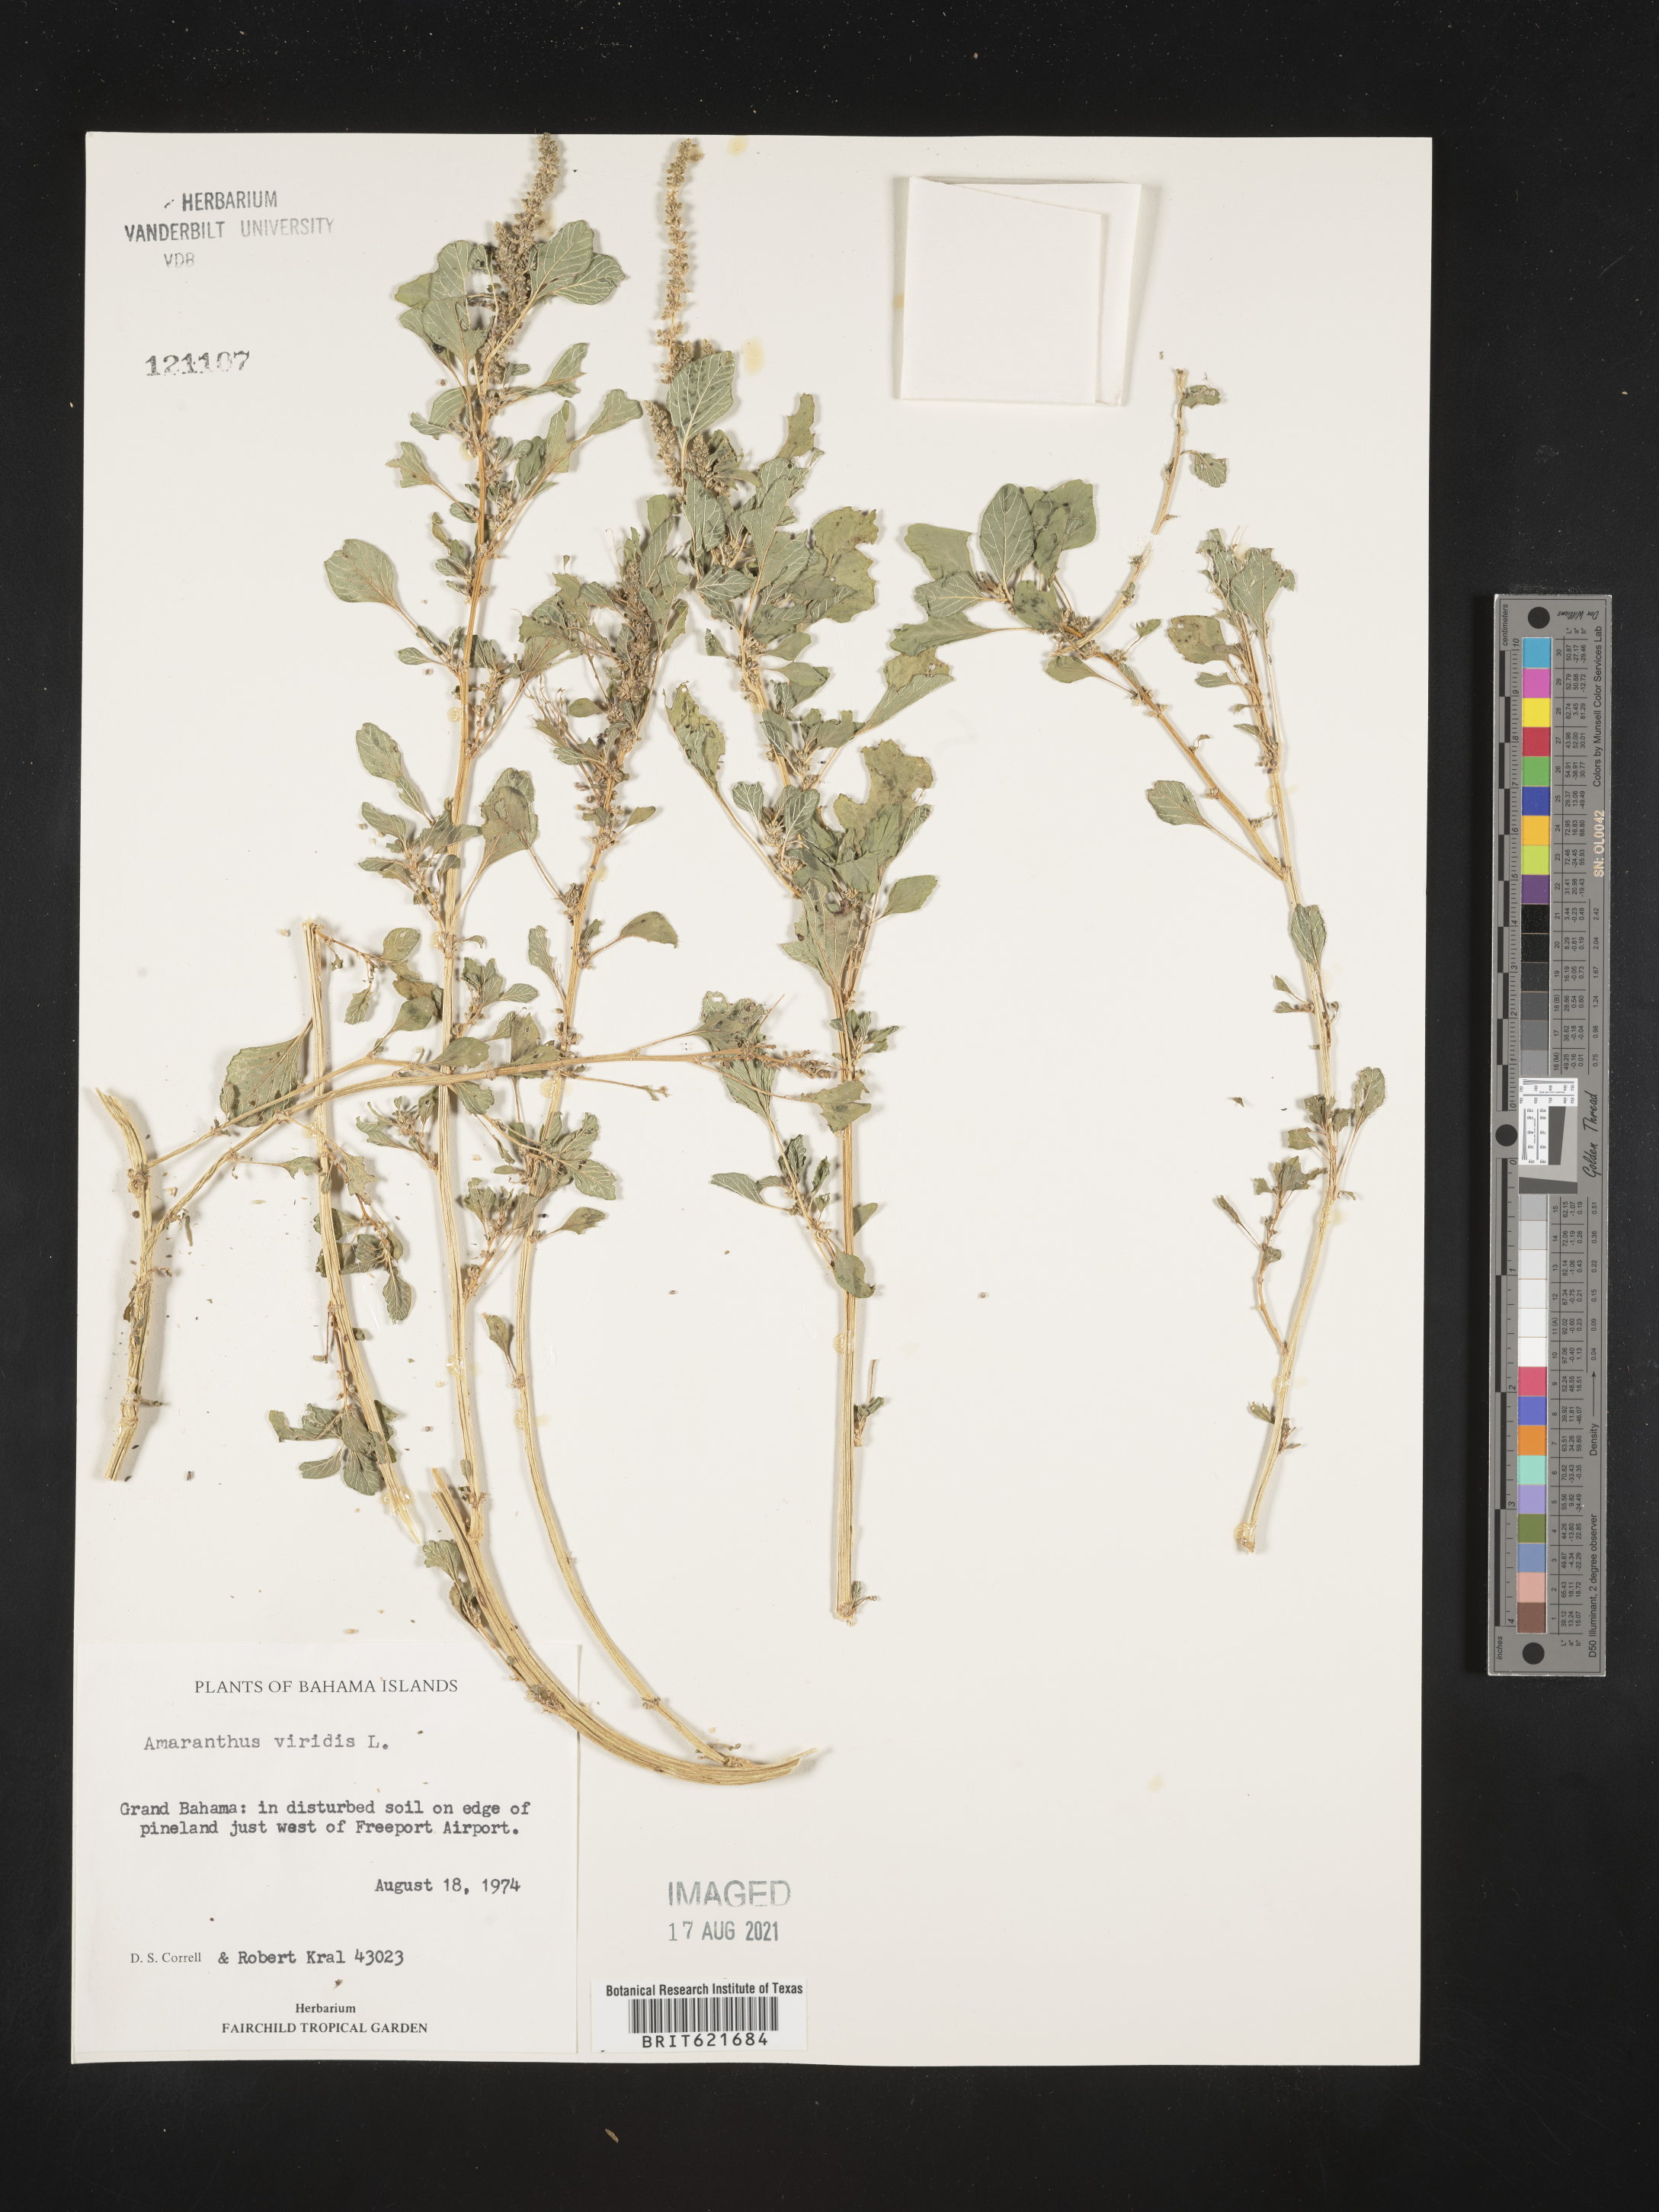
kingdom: Plantae
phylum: Tracheophyta
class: Magnoliopsida
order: Caryophyllales
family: Amaranthaceae
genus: Amaranthus
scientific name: Amaranthus viridis
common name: Slender amaranth
